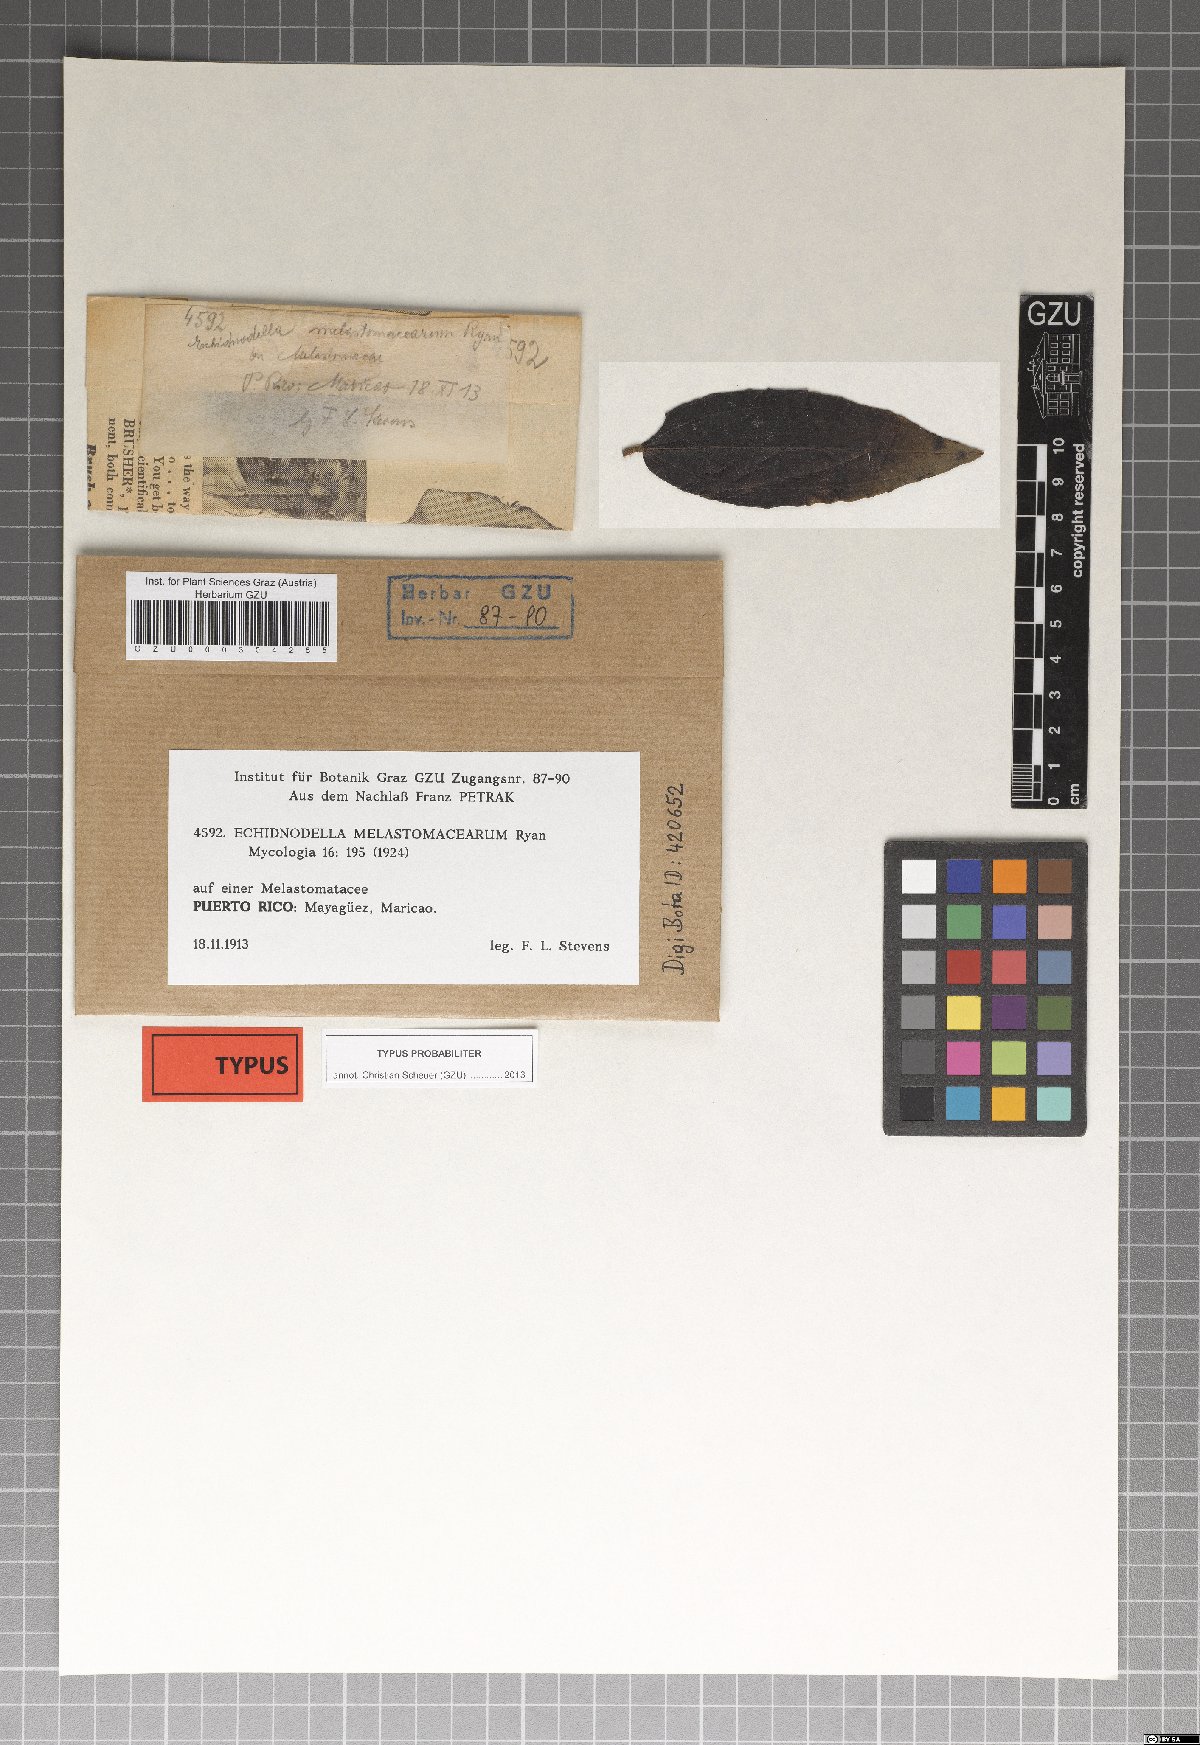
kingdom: Fungi
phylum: Ascomycota
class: Dothideomycetes
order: Asterinales
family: Asterinaceae
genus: Echidnodella
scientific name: Echidnodella melastomacearum
